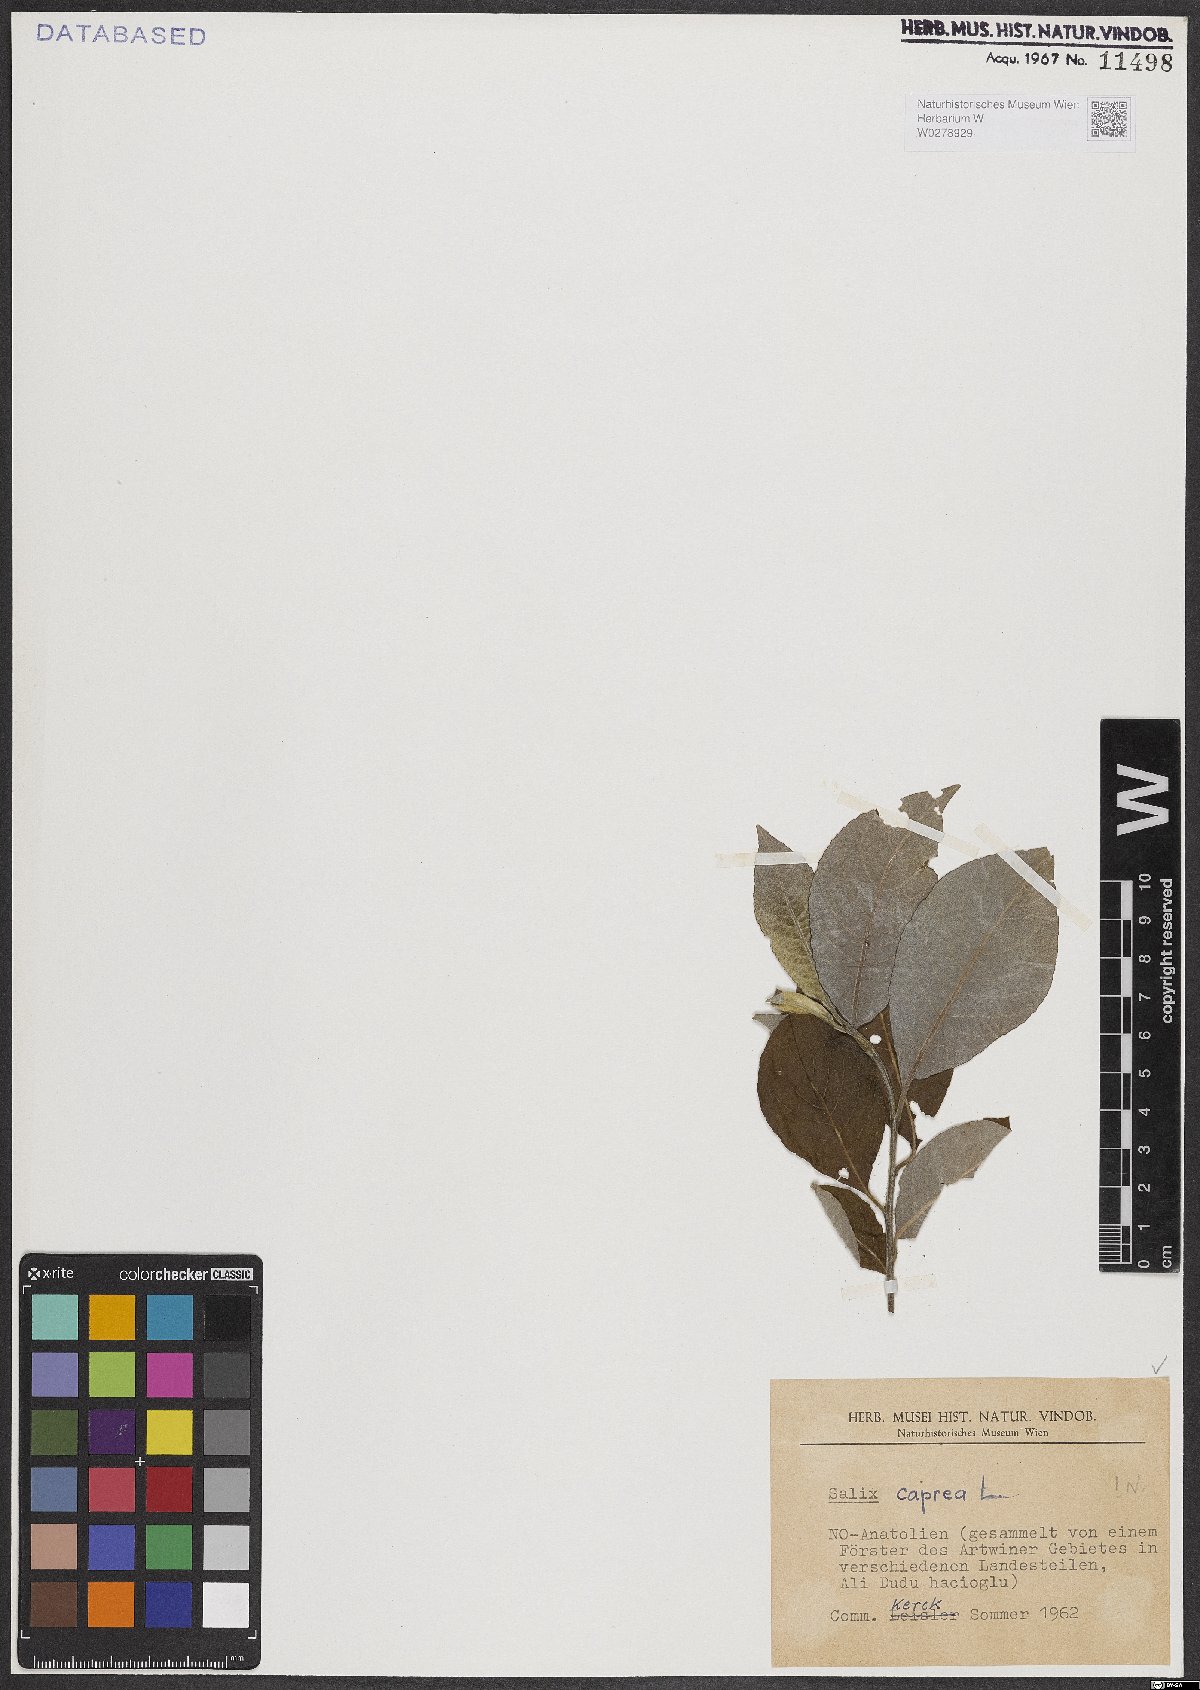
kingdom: Plantae
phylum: Tracheophyta
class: Magnoliopsida
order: Malpighiales
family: Salicaceae
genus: Salix
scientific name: Salix caprea
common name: Goat willow
